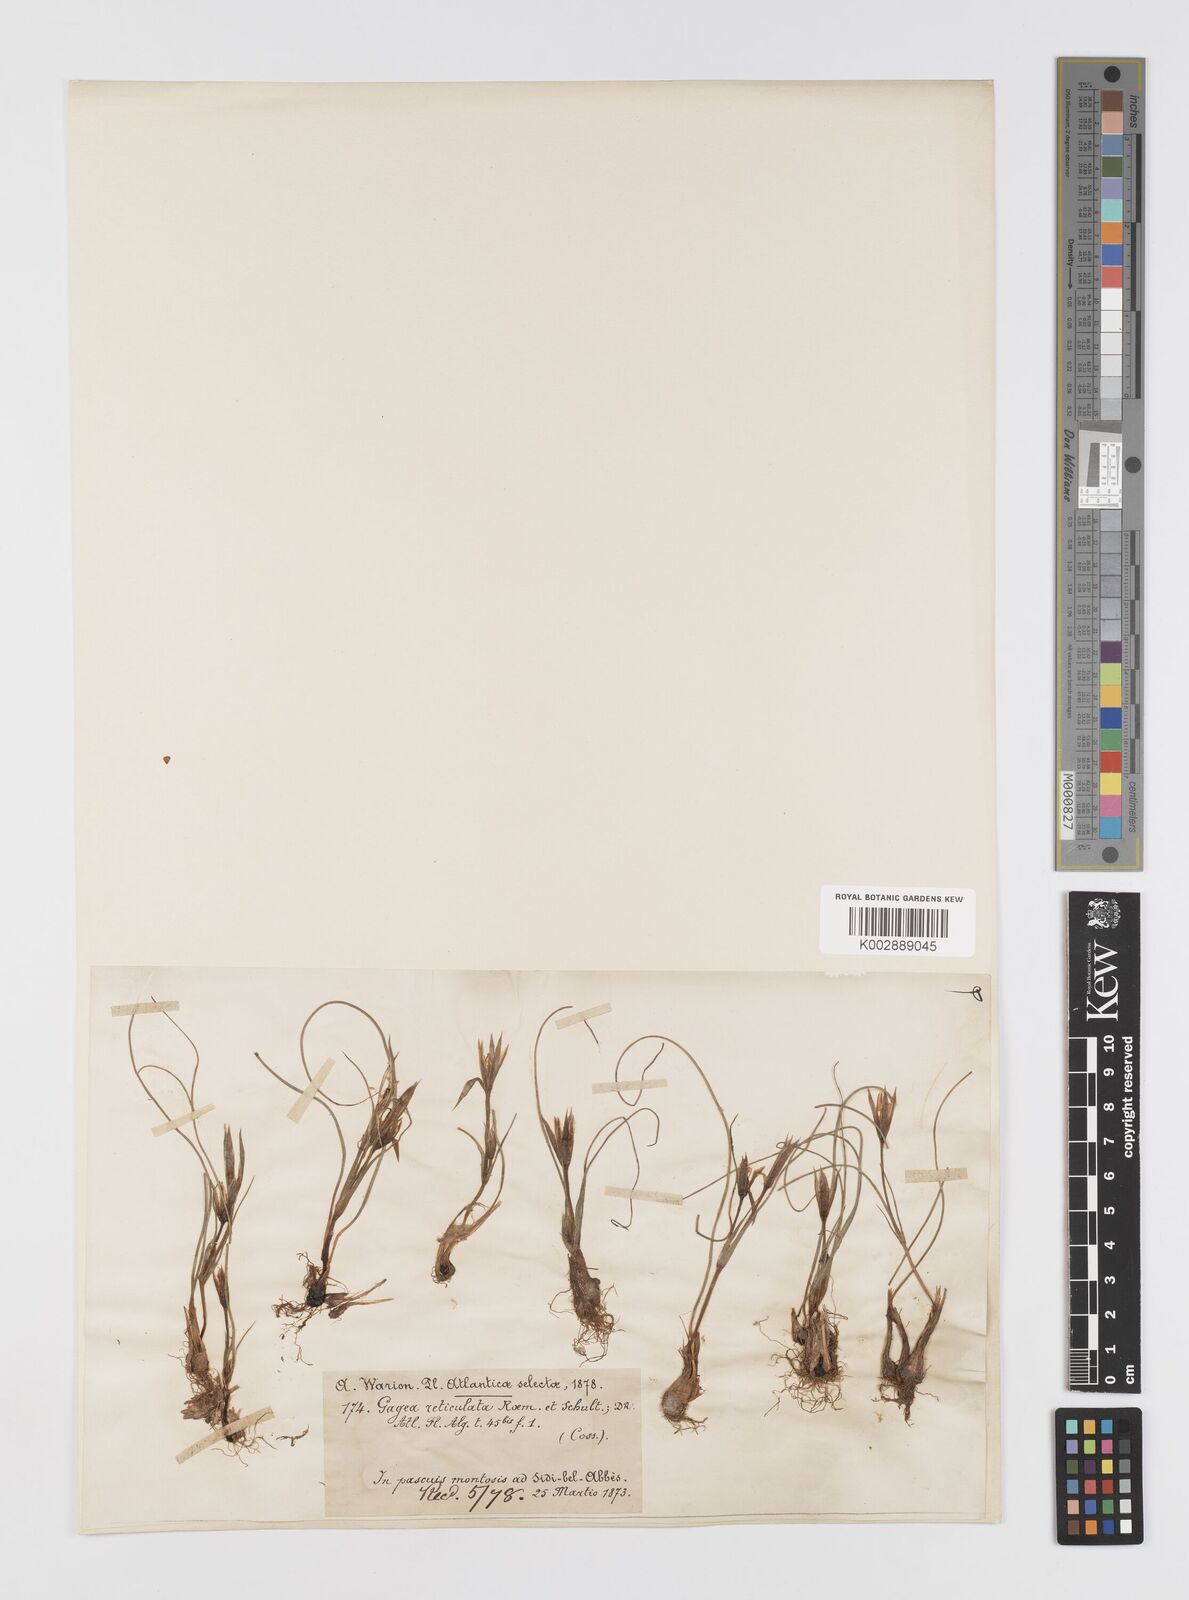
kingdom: Plantae
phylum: Tracheophyta
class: Liliopsida
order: Liliales
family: Liliaceae
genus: Gagea
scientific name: Gagea reticulata
